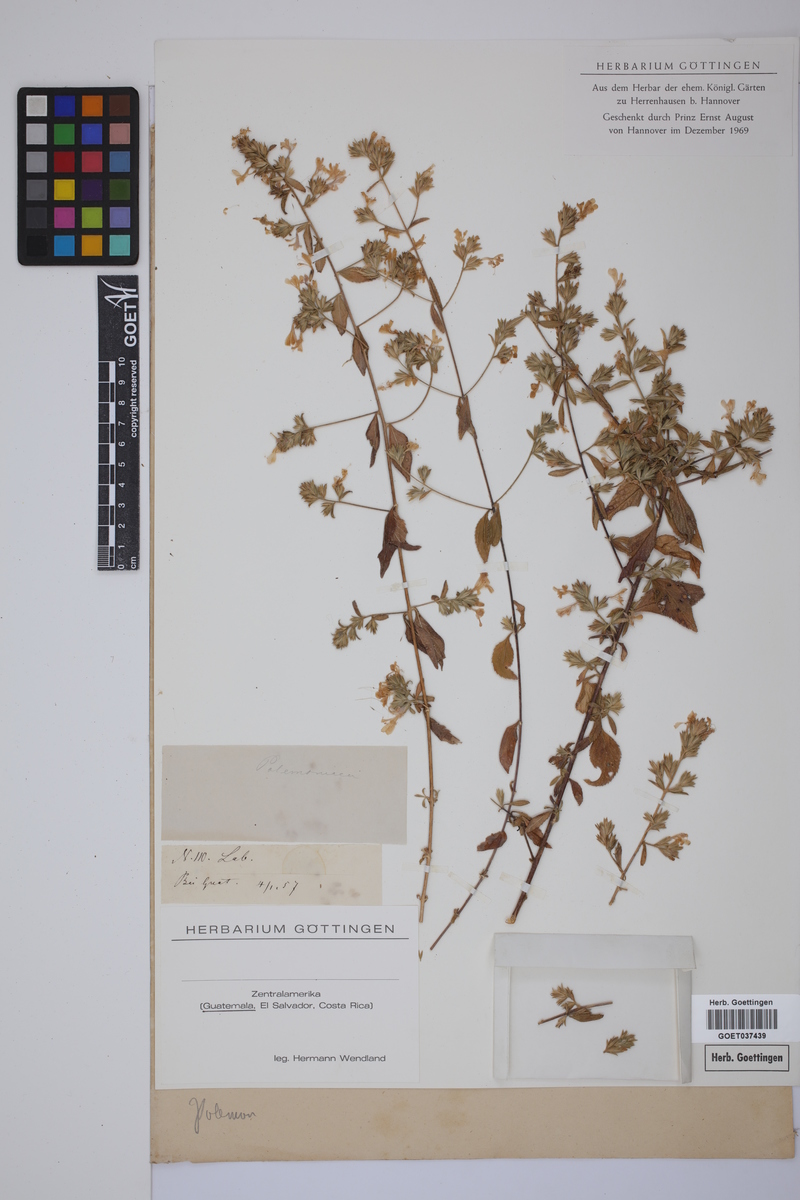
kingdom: Plantae
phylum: Tracheophyta
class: Magnoliopsida
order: Ericales
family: Polemoniaceae
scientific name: Polemoniaceae
